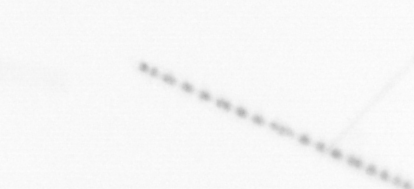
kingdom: Chromista
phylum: Ochrophyta
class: Bacillariophyceae
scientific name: Bacillariophyceae
